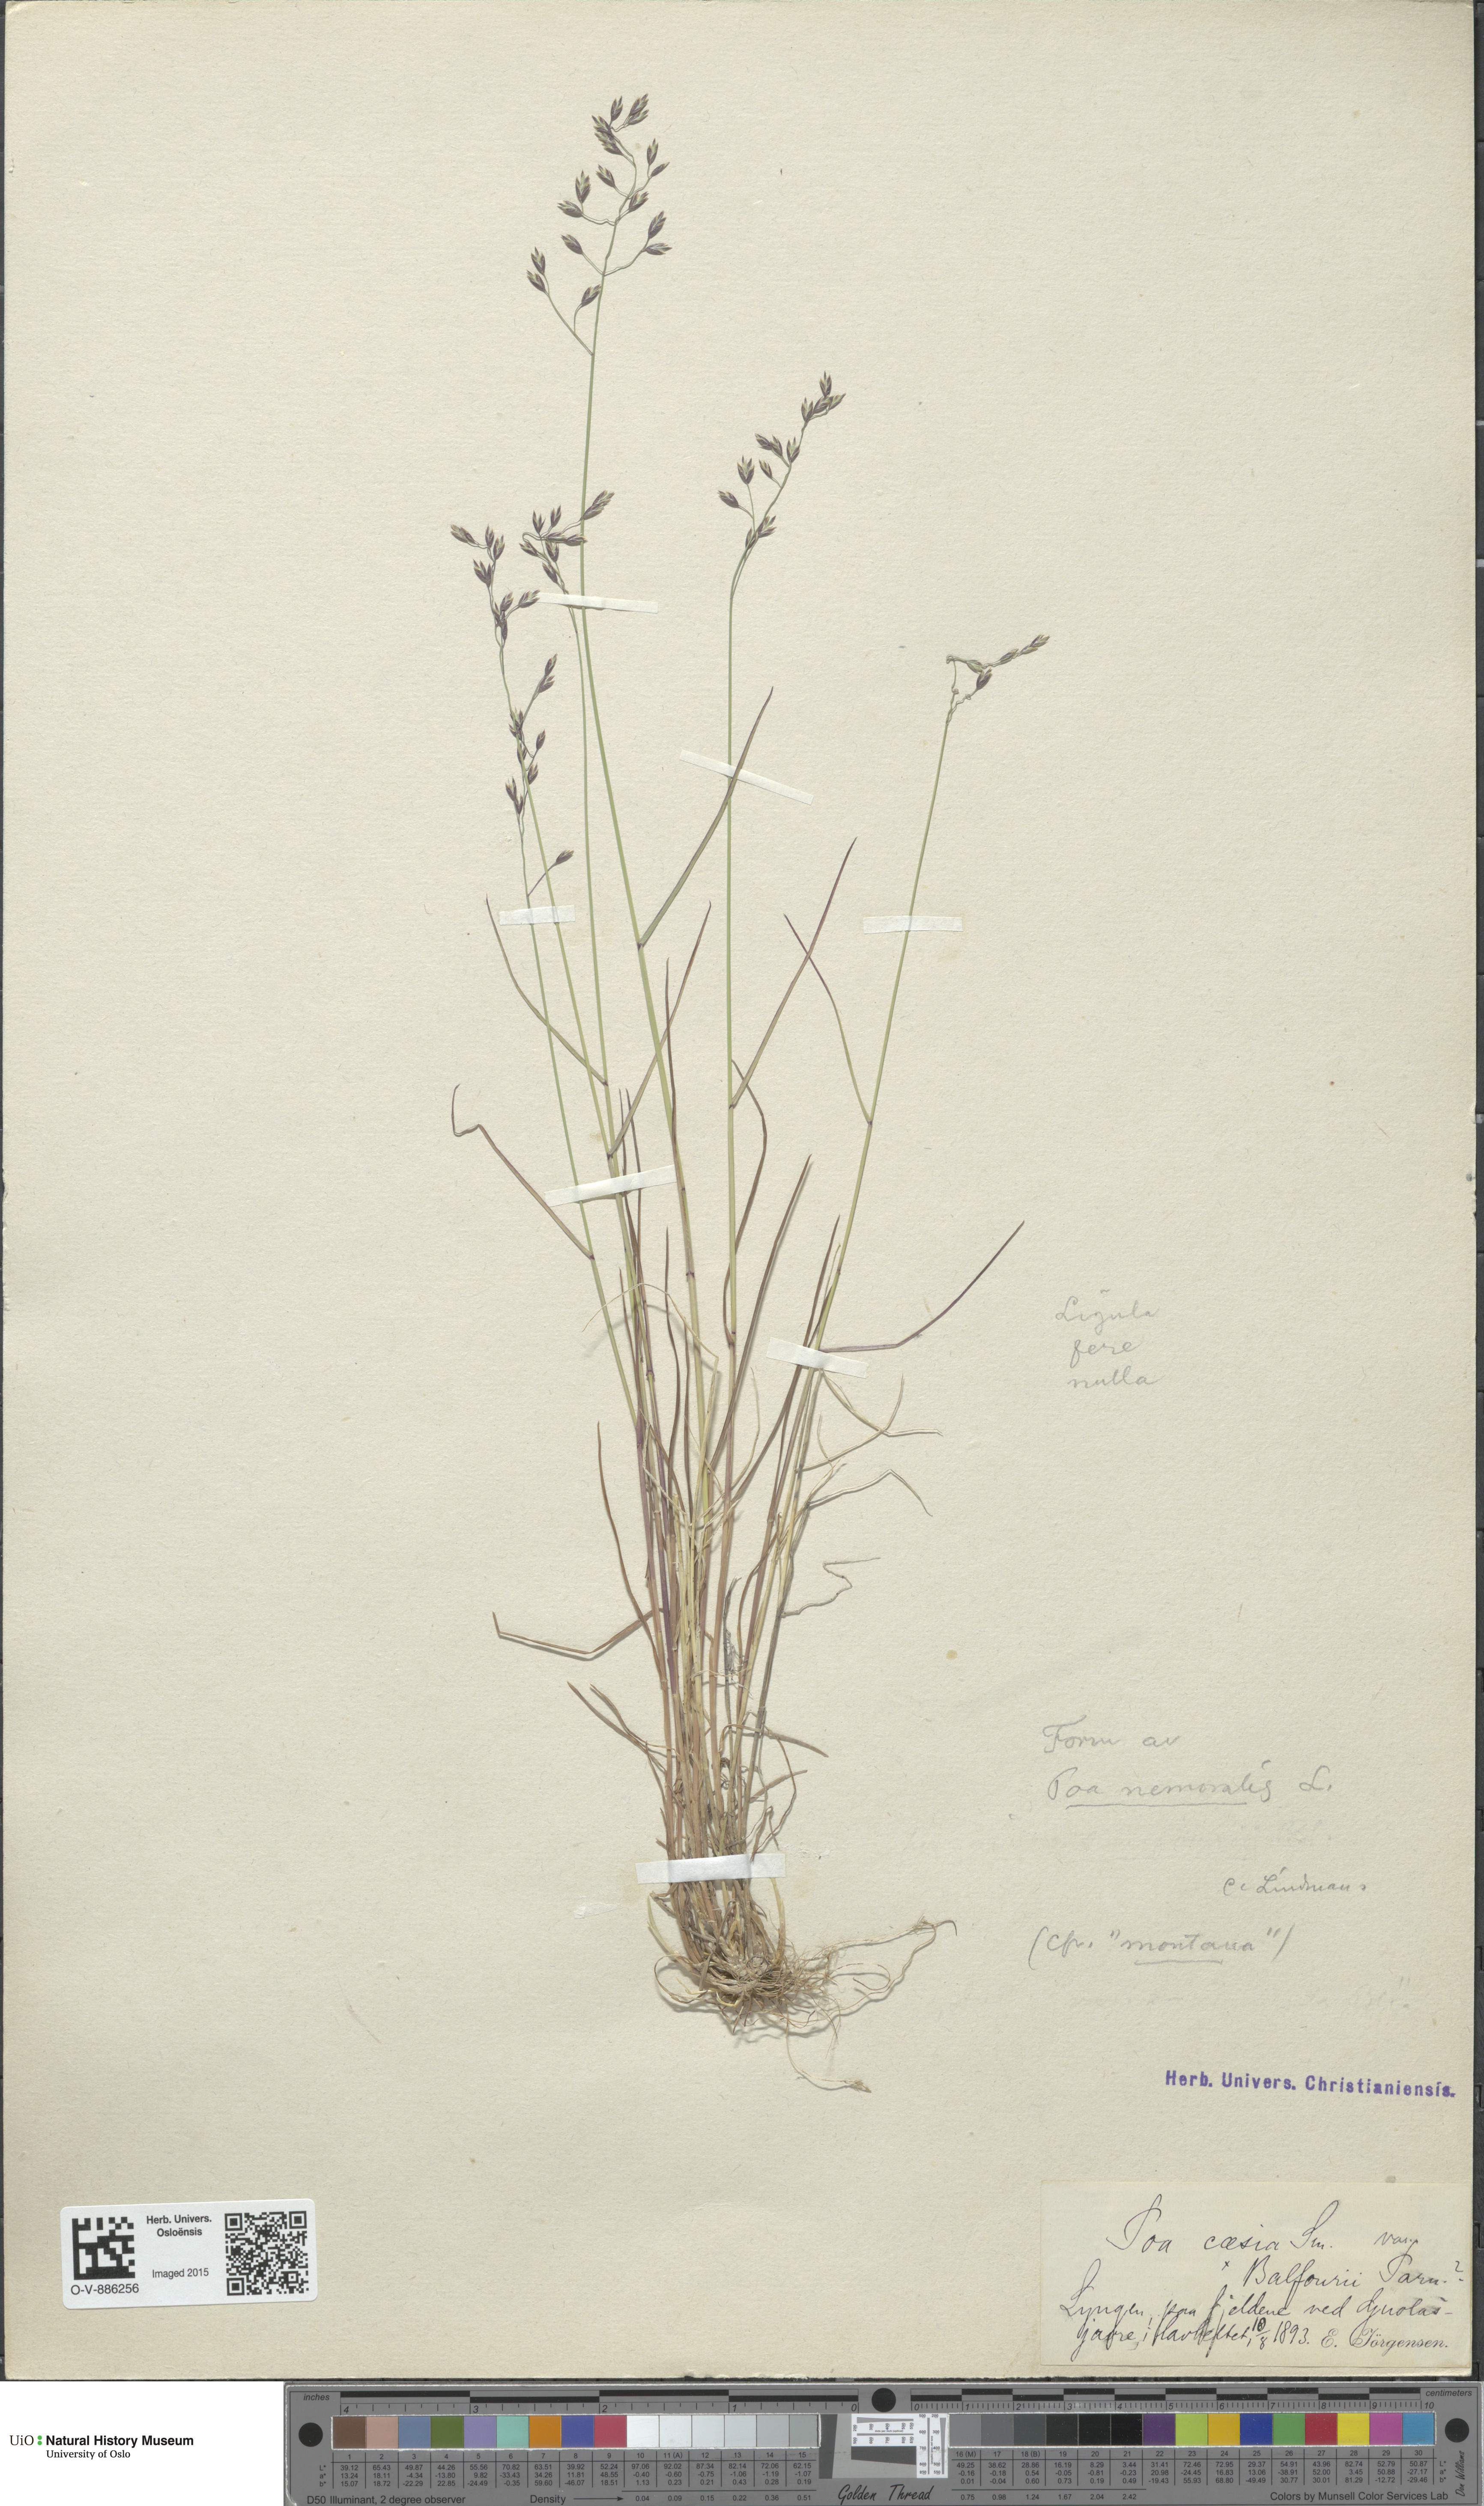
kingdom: Plantae
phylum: Tracheophyta
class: Liliopsida
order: Poales
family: Poaceae
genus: Poa
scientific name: Poa nemoralis
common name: Wood bluegrass
